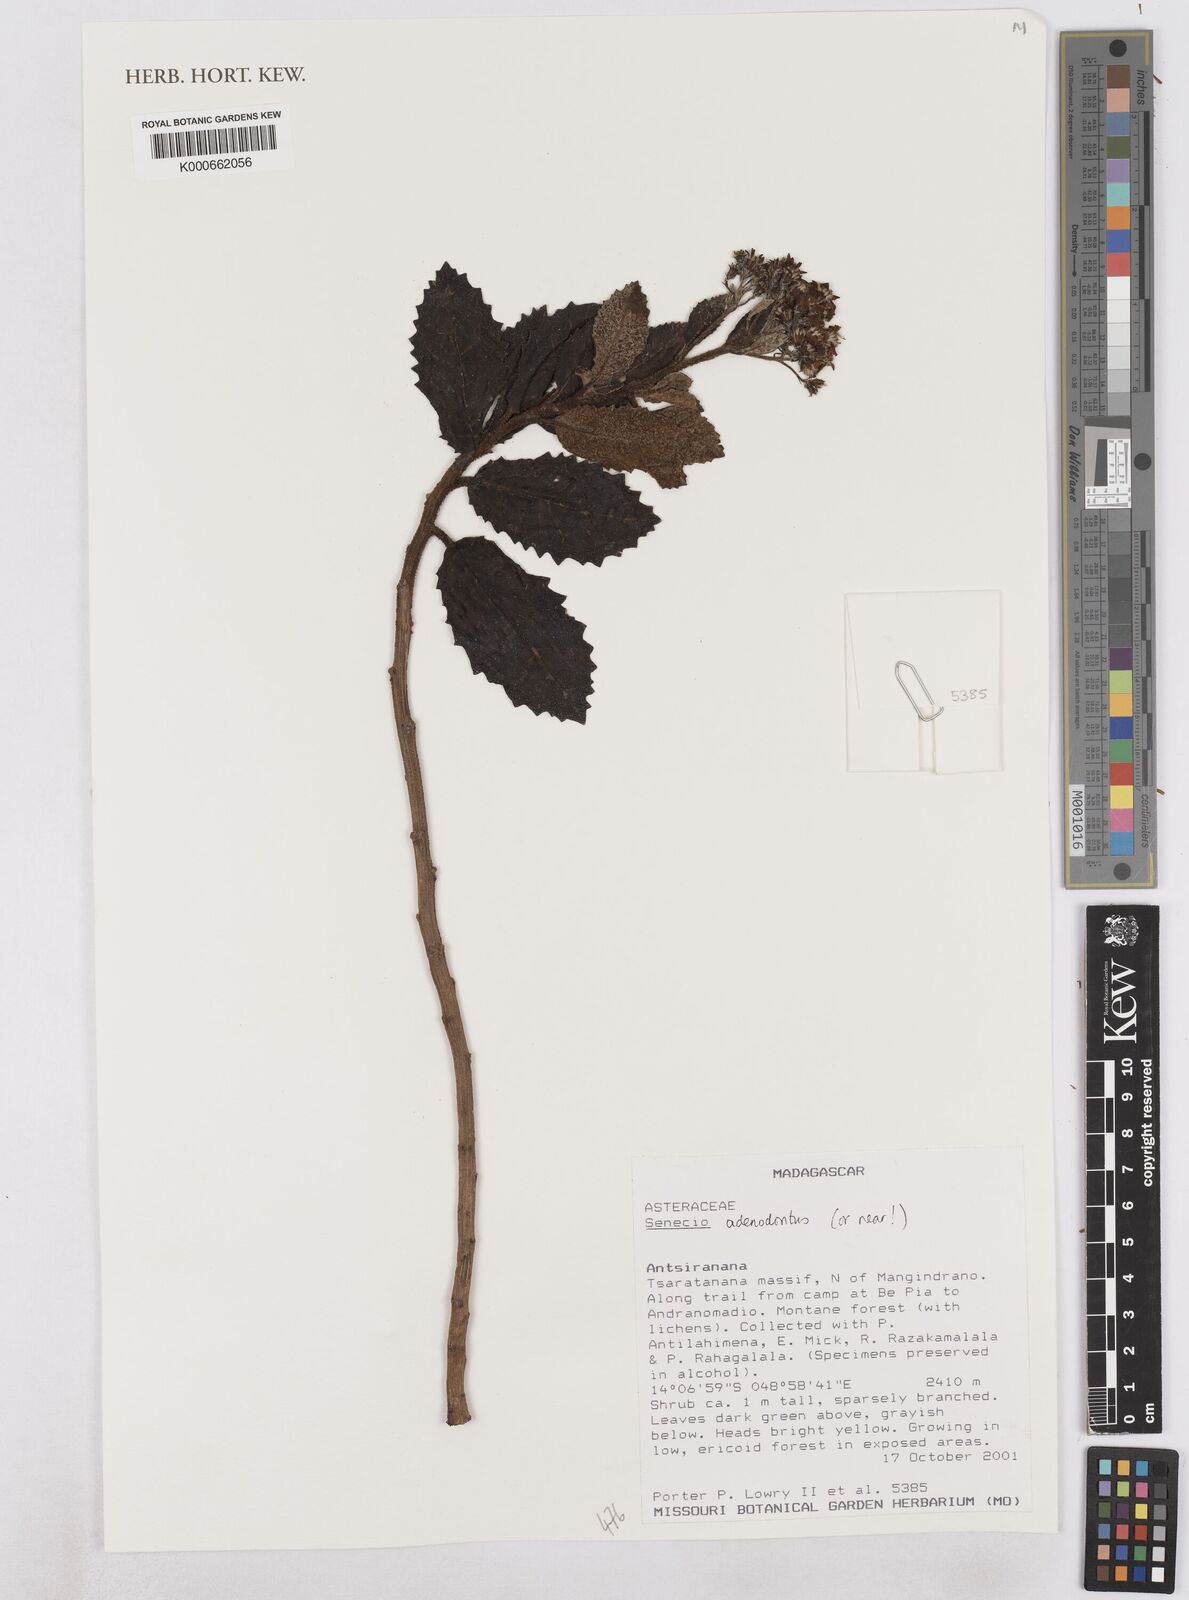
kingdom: Plantae
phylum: Tracheophyta
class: Magnoliopsida
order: Asterales
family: Asteraceae
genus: Hubertia
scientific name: Hubertia adenodonta
